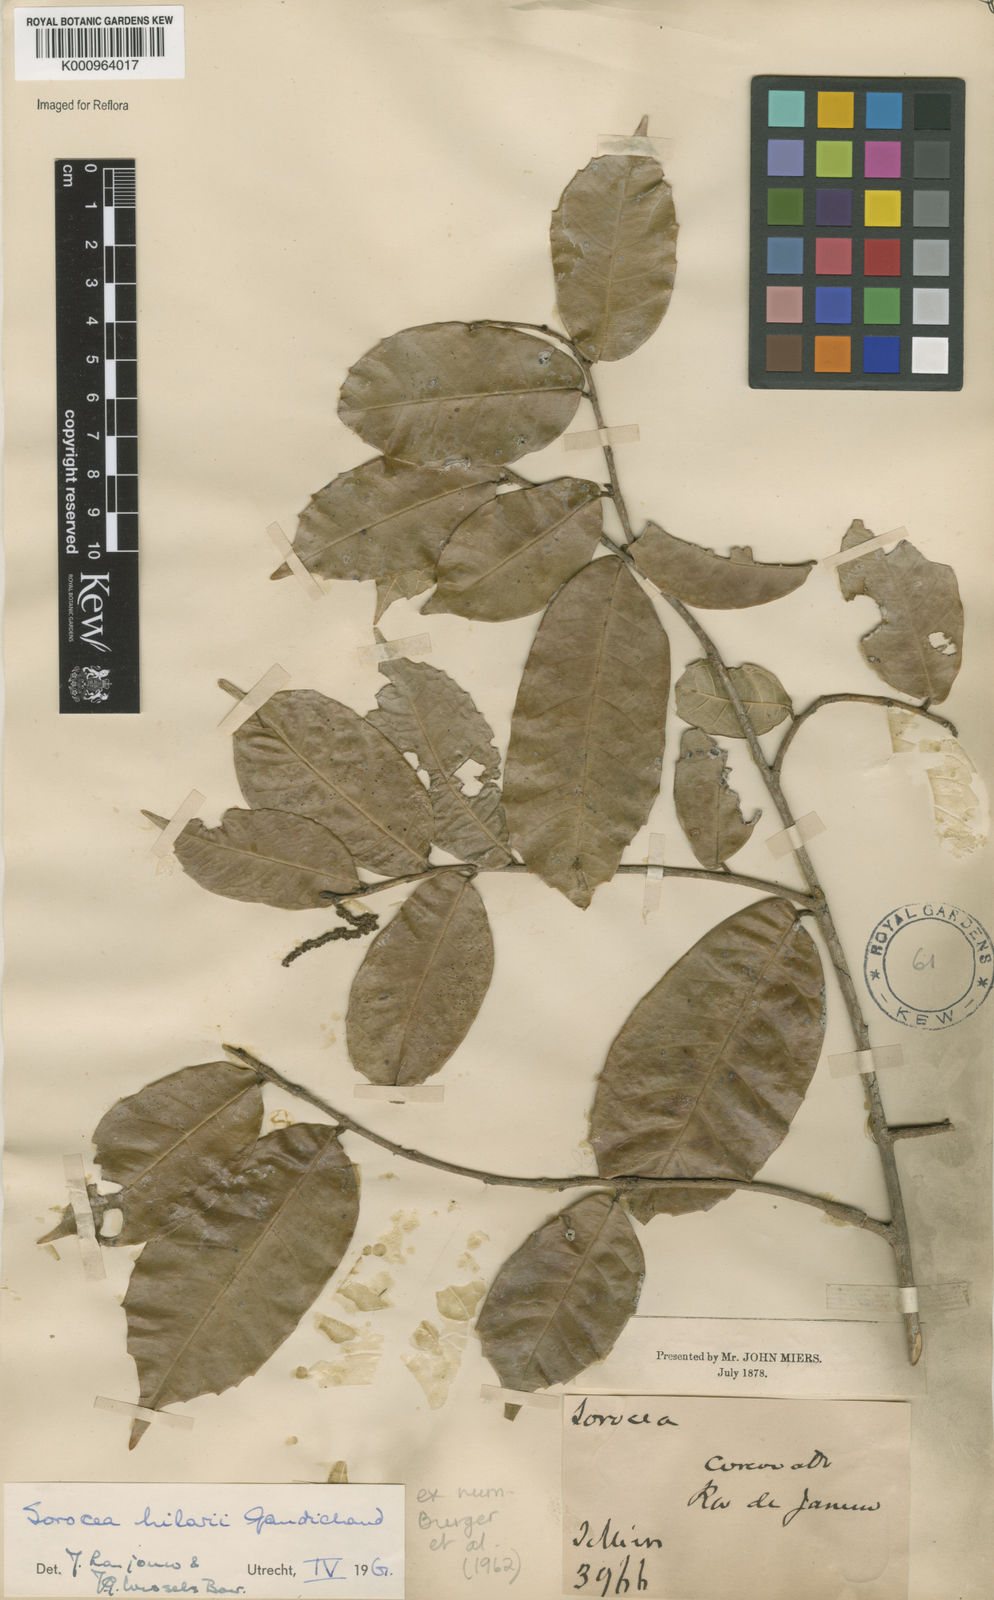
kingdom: Plantae
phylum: Tracheophyta
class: Magnoliopsida
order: Rosales
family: Moraceae
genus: Sorocea
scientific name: Sorocea hilarii
